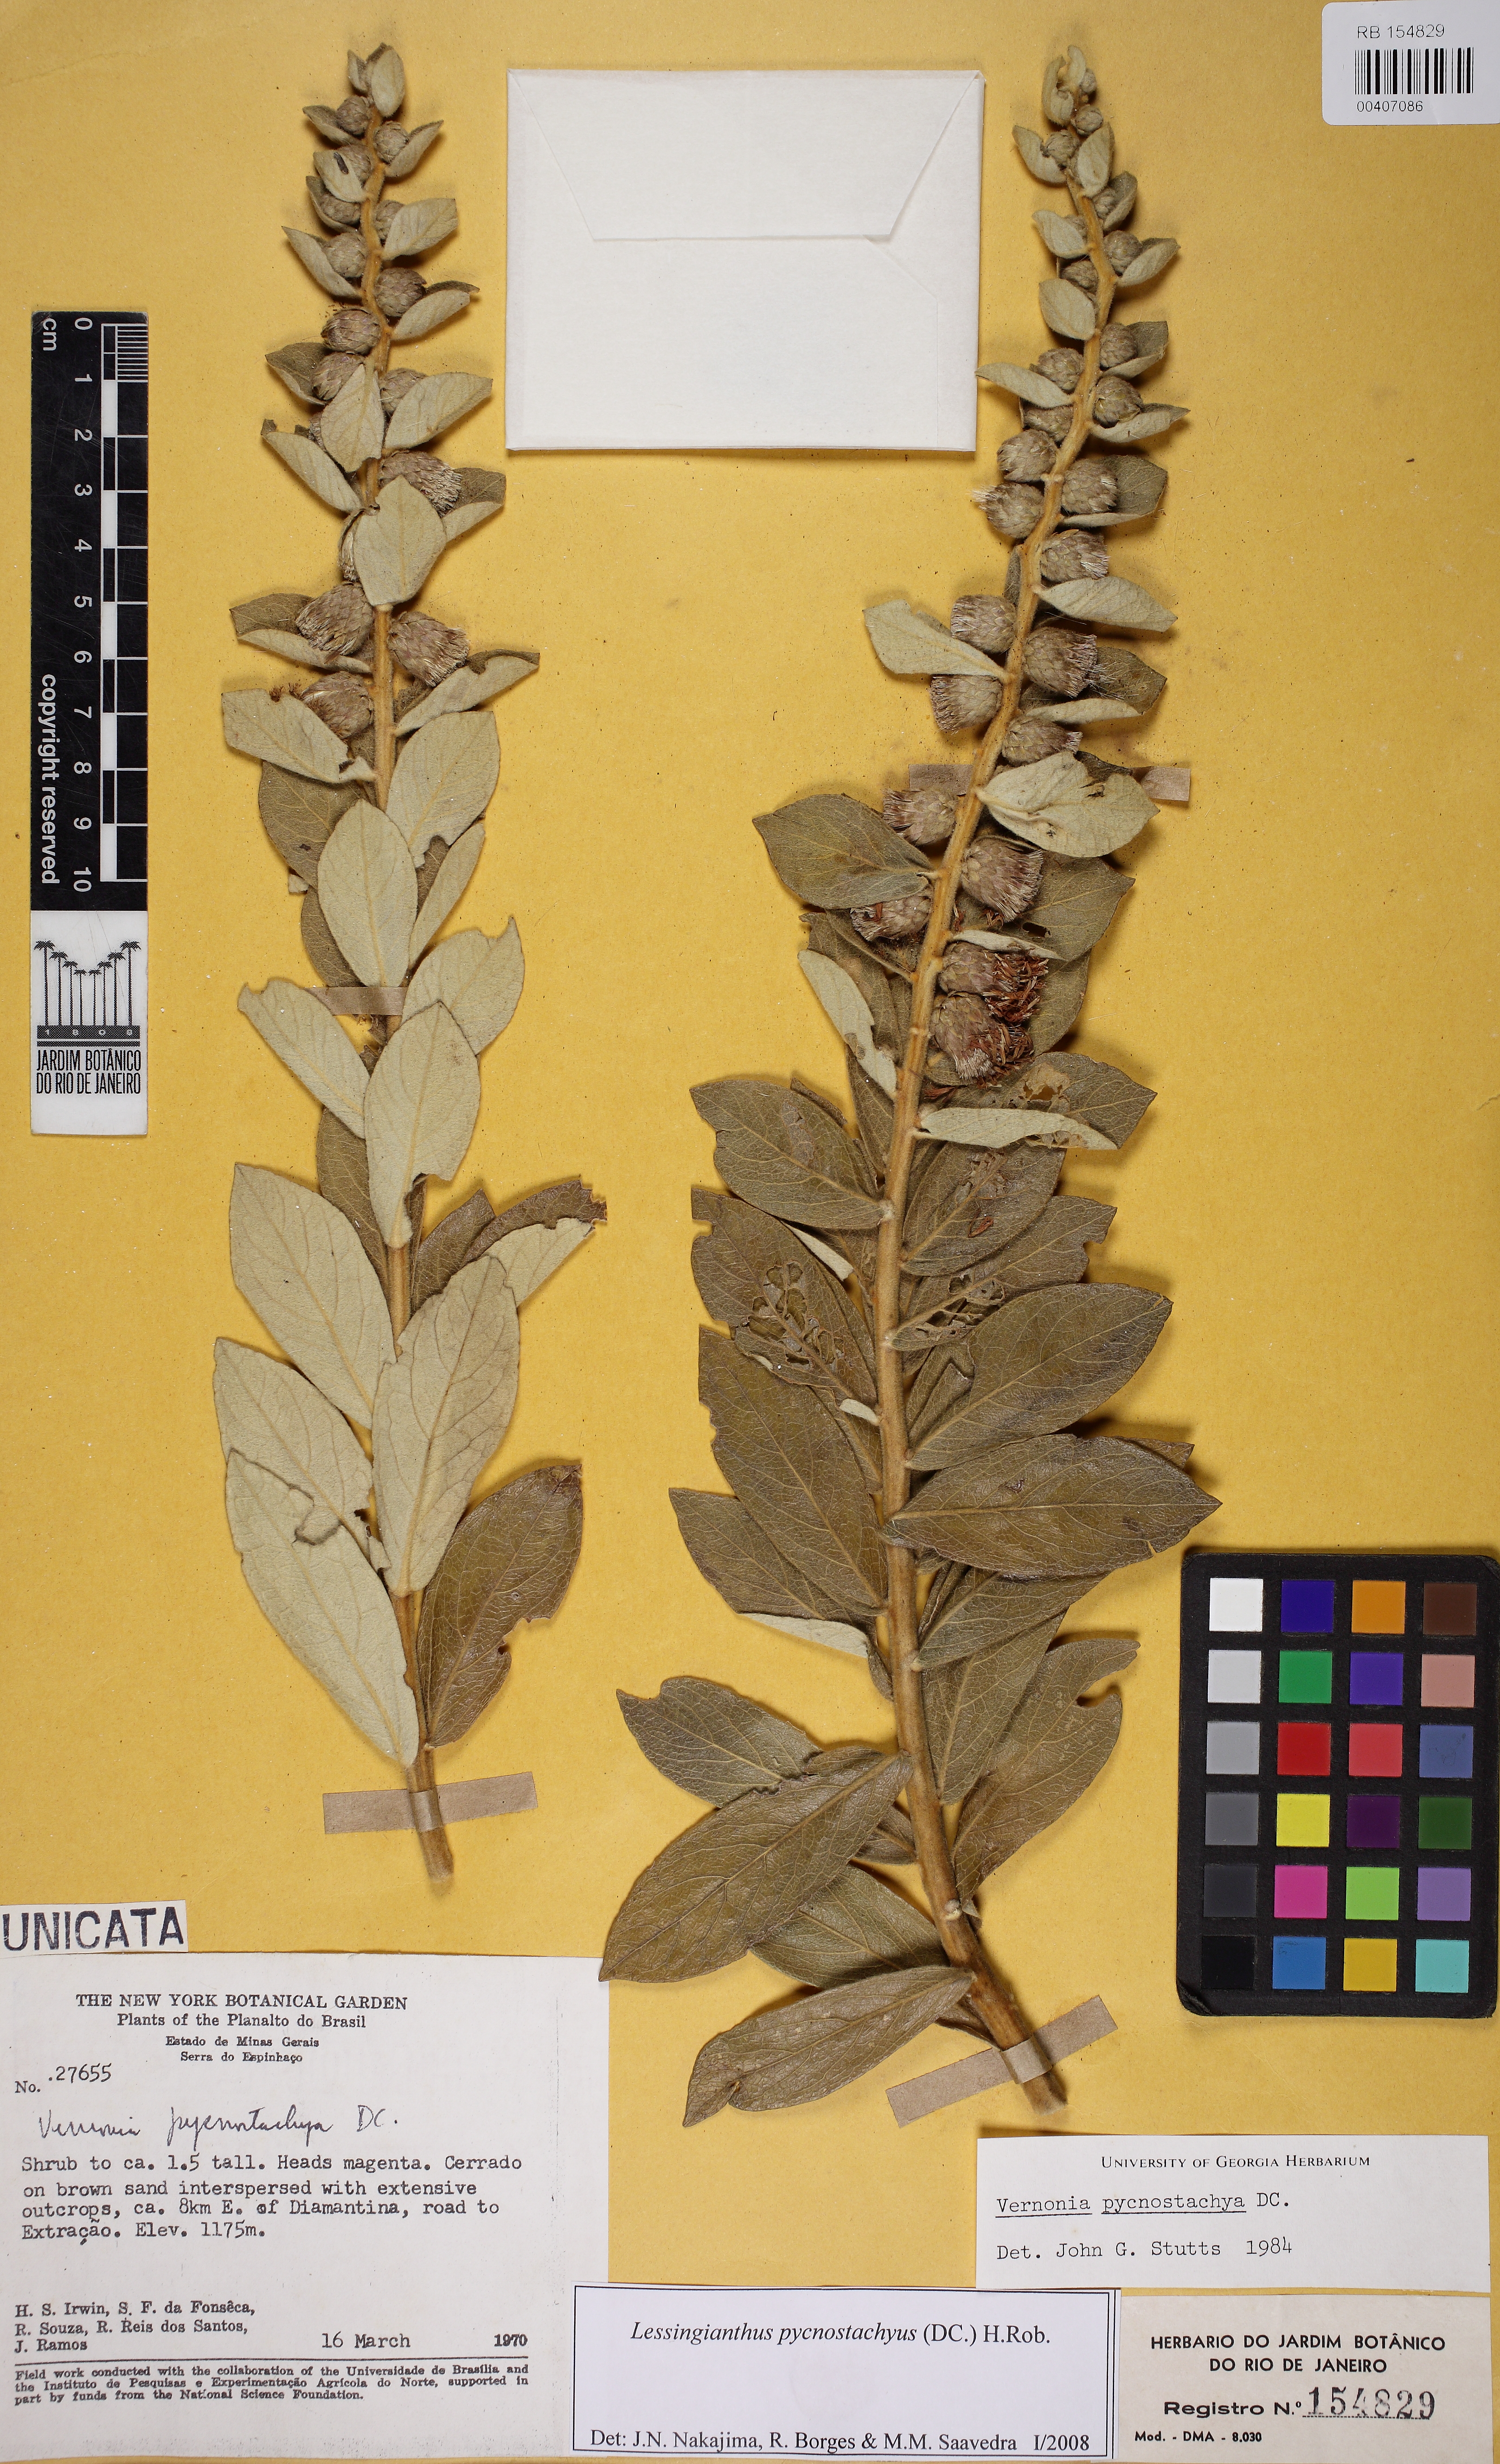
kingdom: Plantae
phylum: Tracheophyta
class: Magnoliopsida
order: Asterales
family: Asteraceae
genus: Lessingianthus
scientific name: Lessingianthus pycnostachyus
